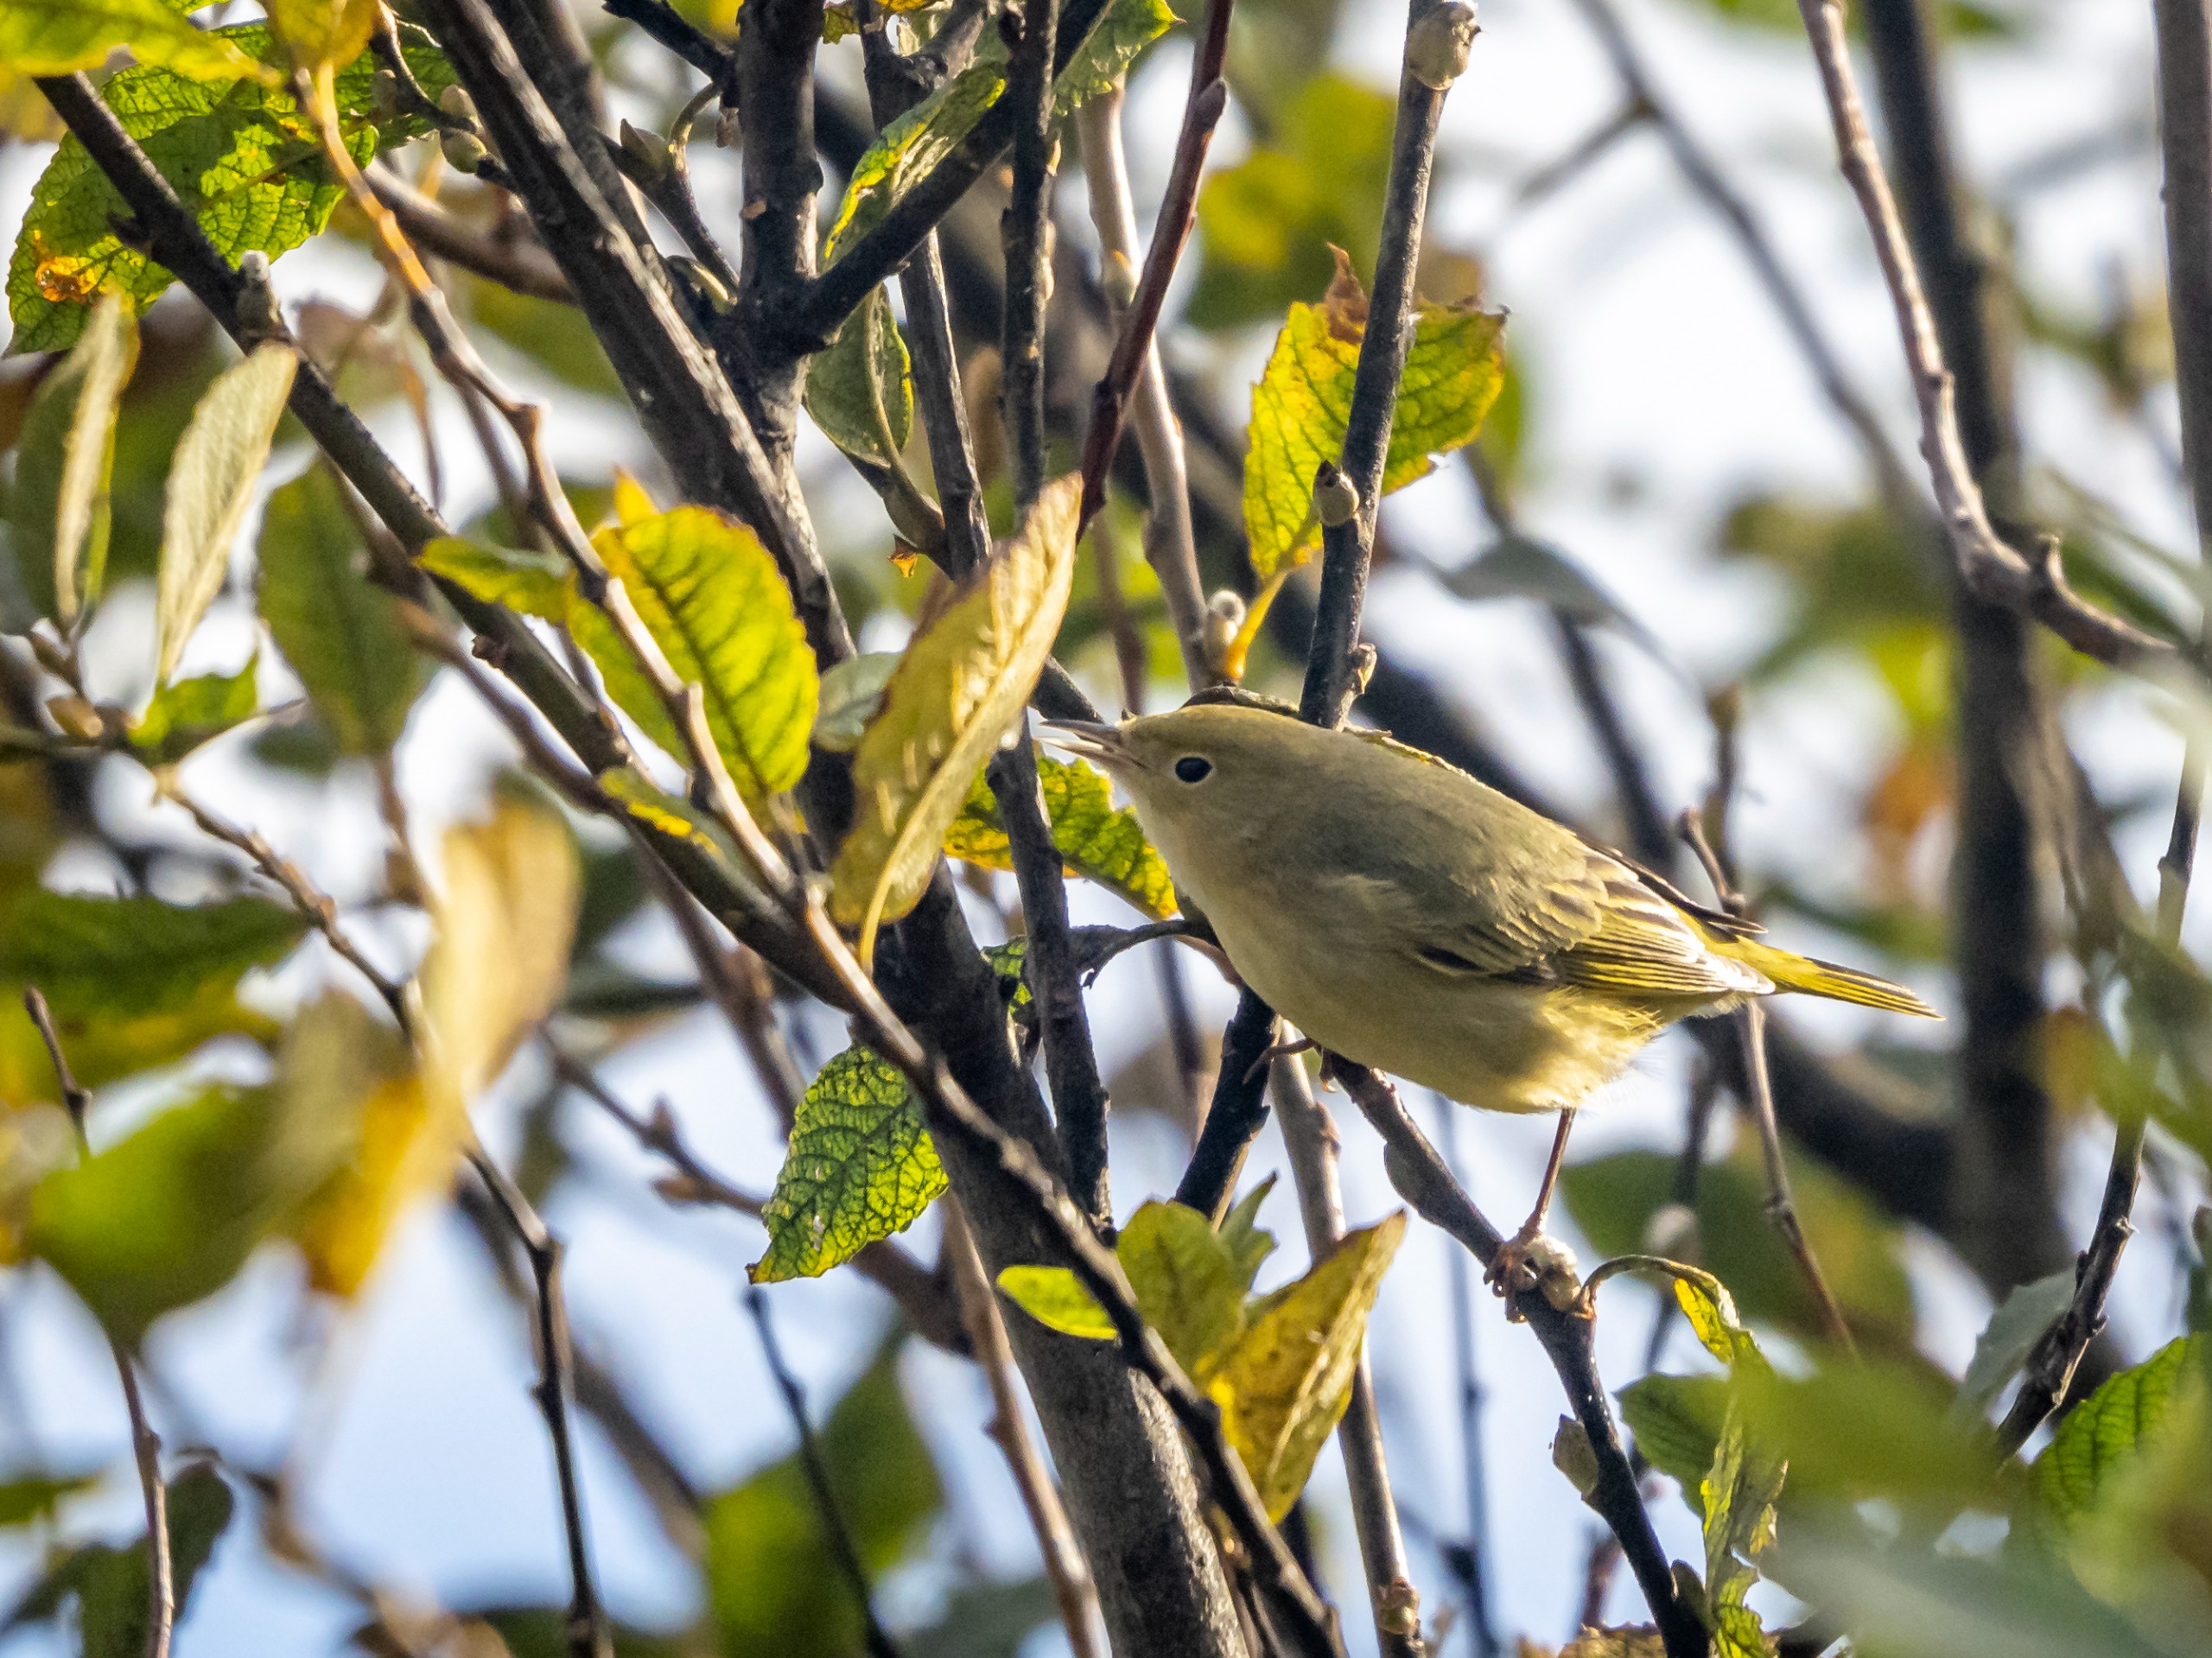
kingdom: Animalia
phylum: Chordata
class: Aves
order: Passeriformes
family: Parulidae
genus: Setophaga
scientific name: Setophaga aestiva
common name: Gul sanger
